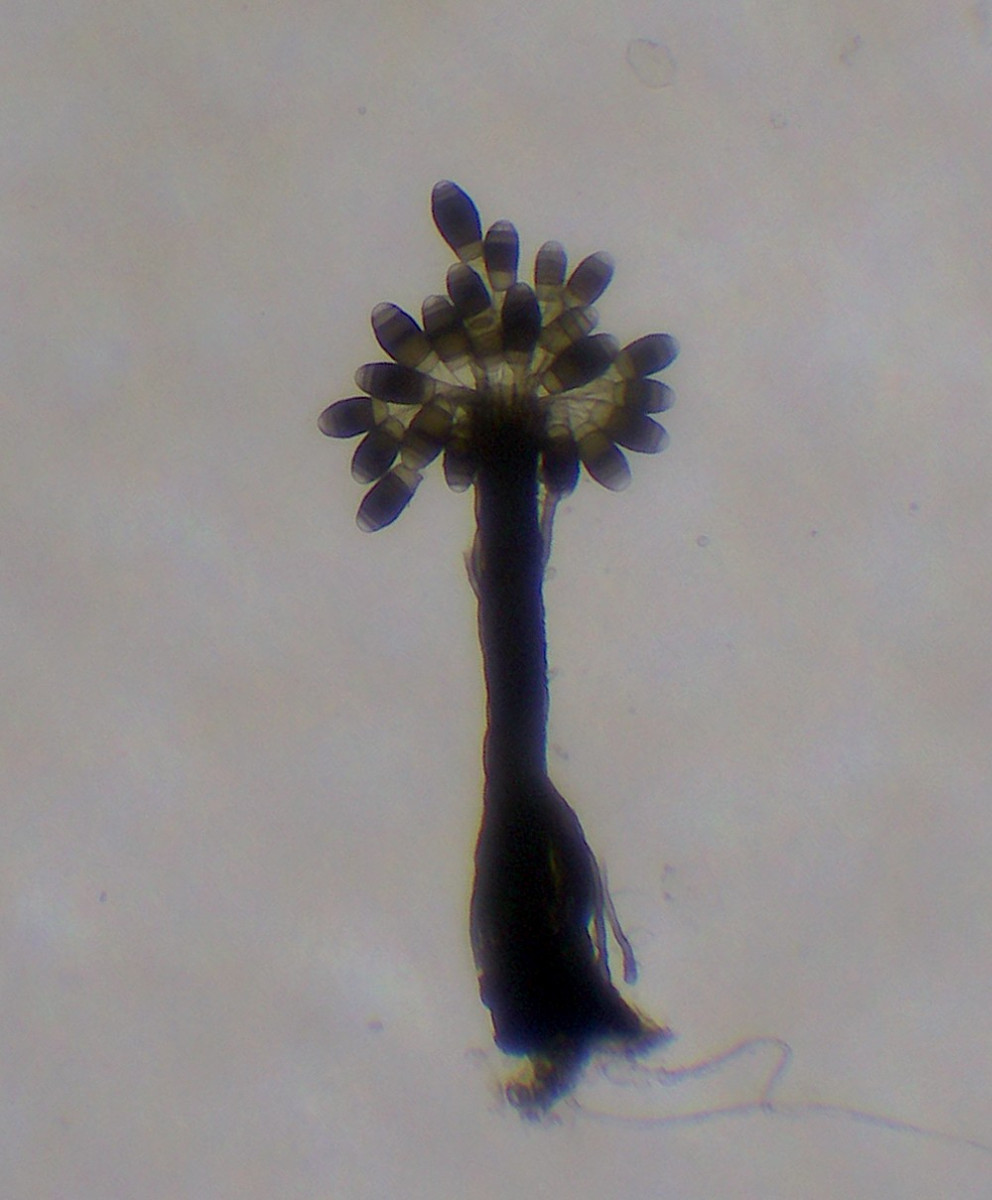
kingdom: Fungi
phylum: Ascomycota
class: Dothideomycetes
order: Pleosporales
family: Melanommataceae
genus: Phragmocephala
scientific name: Phragmocephala elliptica
